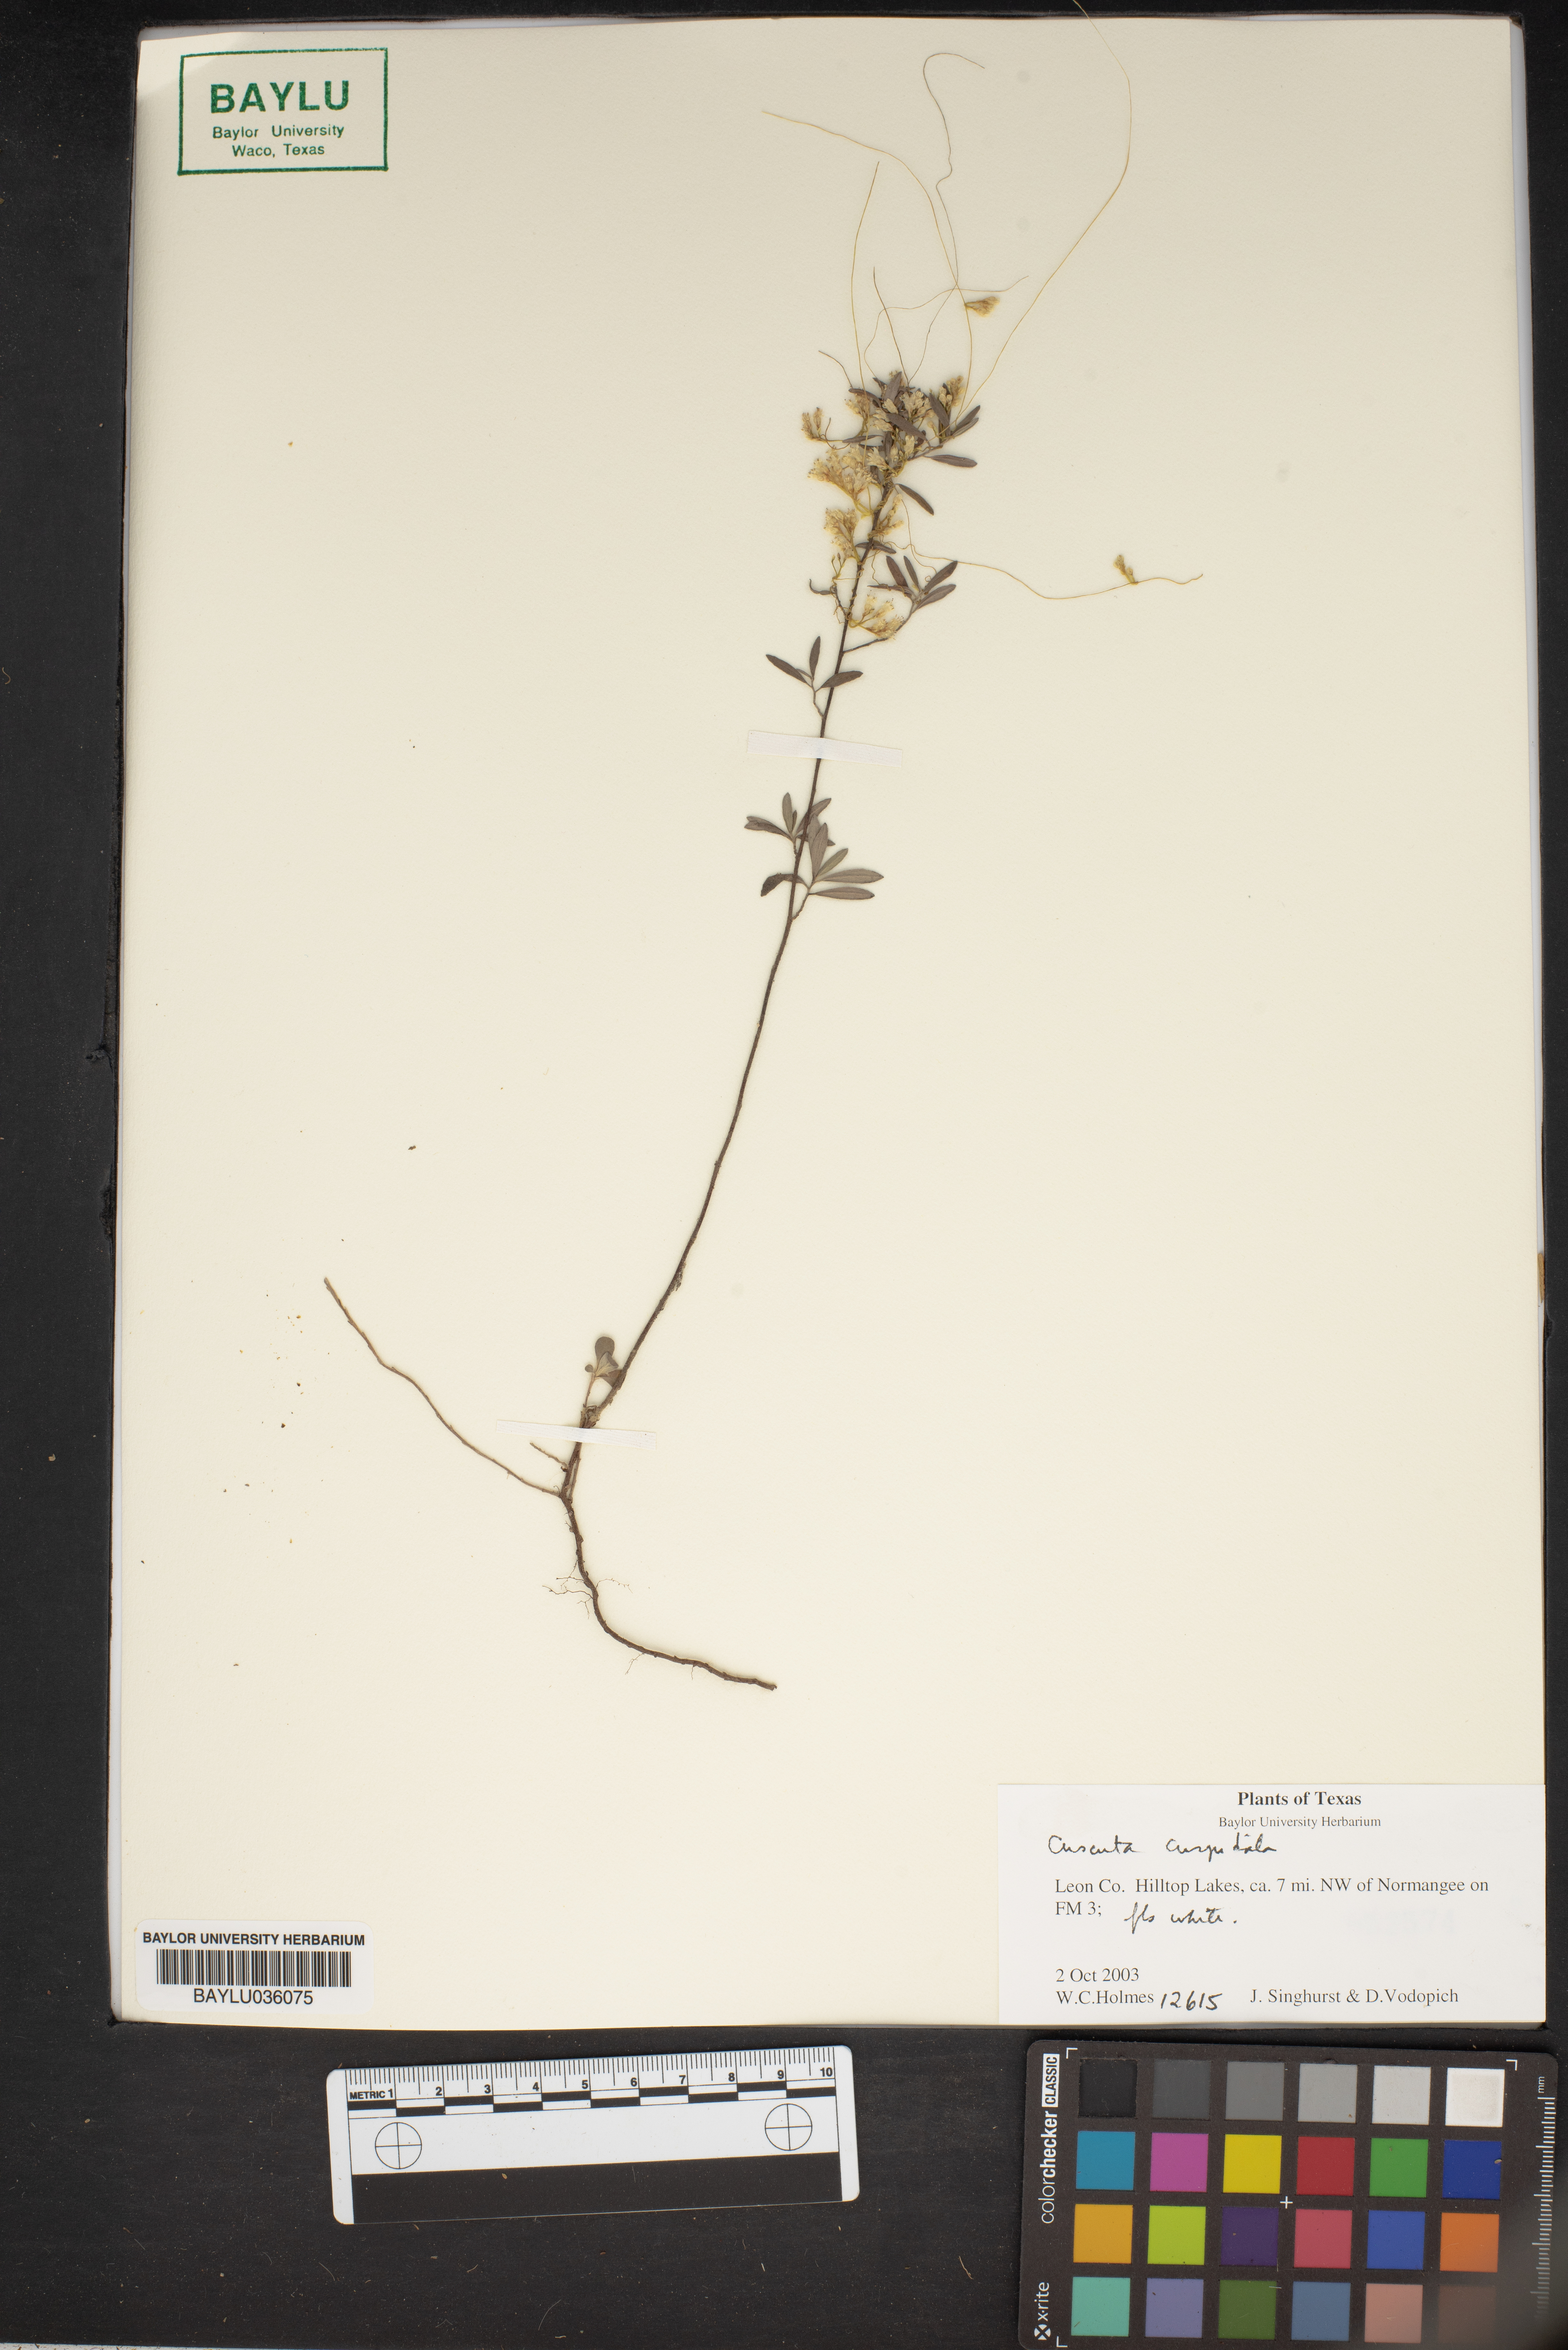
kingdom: Plantae
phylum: Tracheophyta
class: Magnoliopsida
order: Solanales
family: Convolvulaceae
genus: Cuscuta
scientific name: Cuscuta cuspidata
